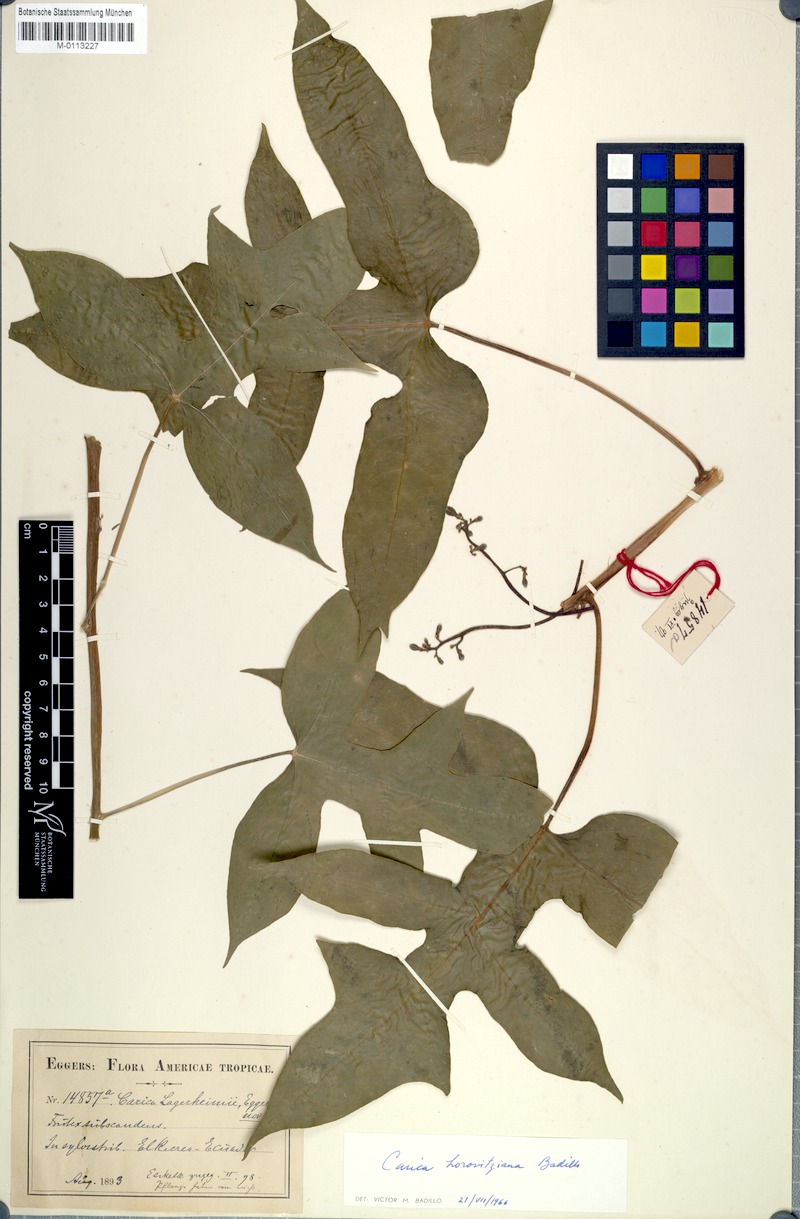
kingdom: Plantae
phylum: Tracheophyta
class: Magnoliopsida
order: Brassicales
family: Caricaceae
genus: Vasconcellea
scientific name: Vasconcellea horovitziana
